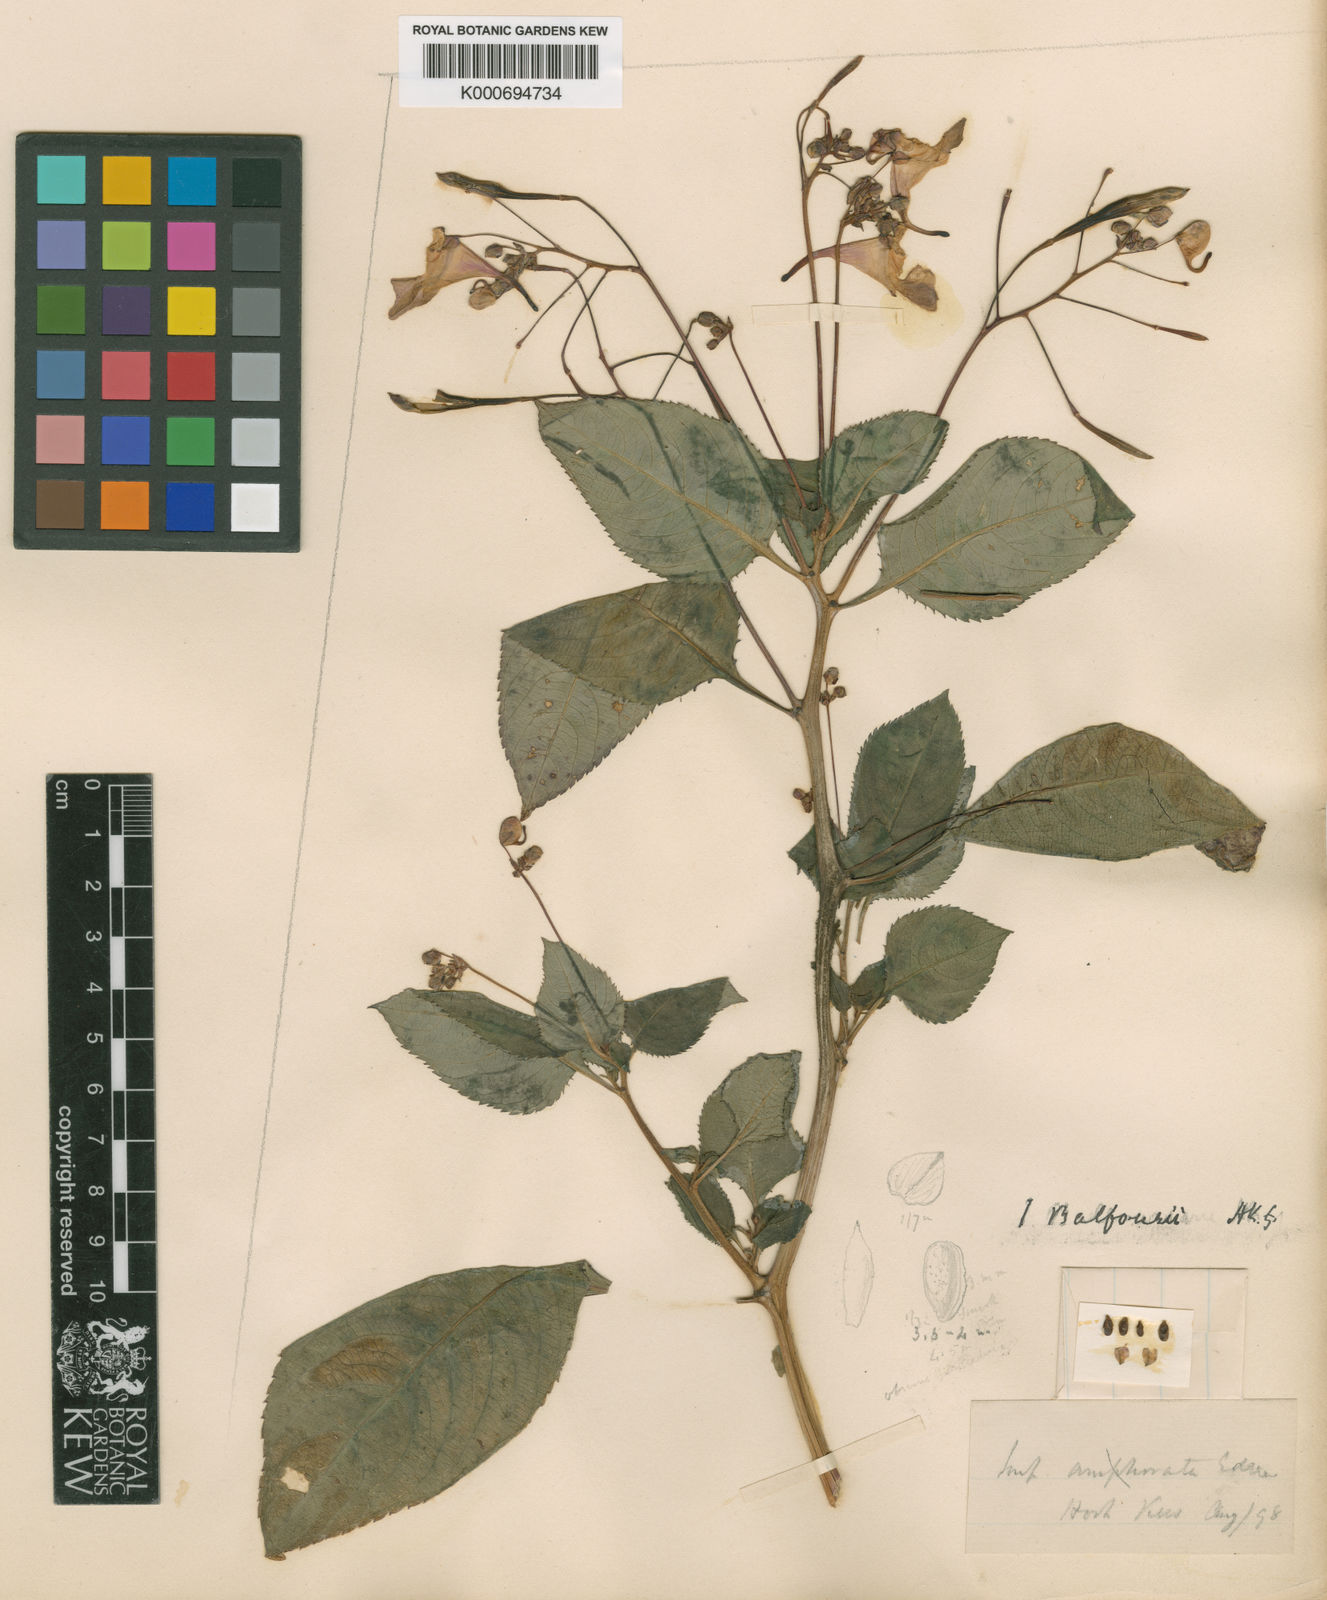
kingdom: Plantae
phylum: Tracheophyta
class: Magnoliopsida
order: Ericales
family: Balsaminaceae
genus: Impatiens
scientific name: Impatiens balfourii
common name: Balfour's touch-me-not
